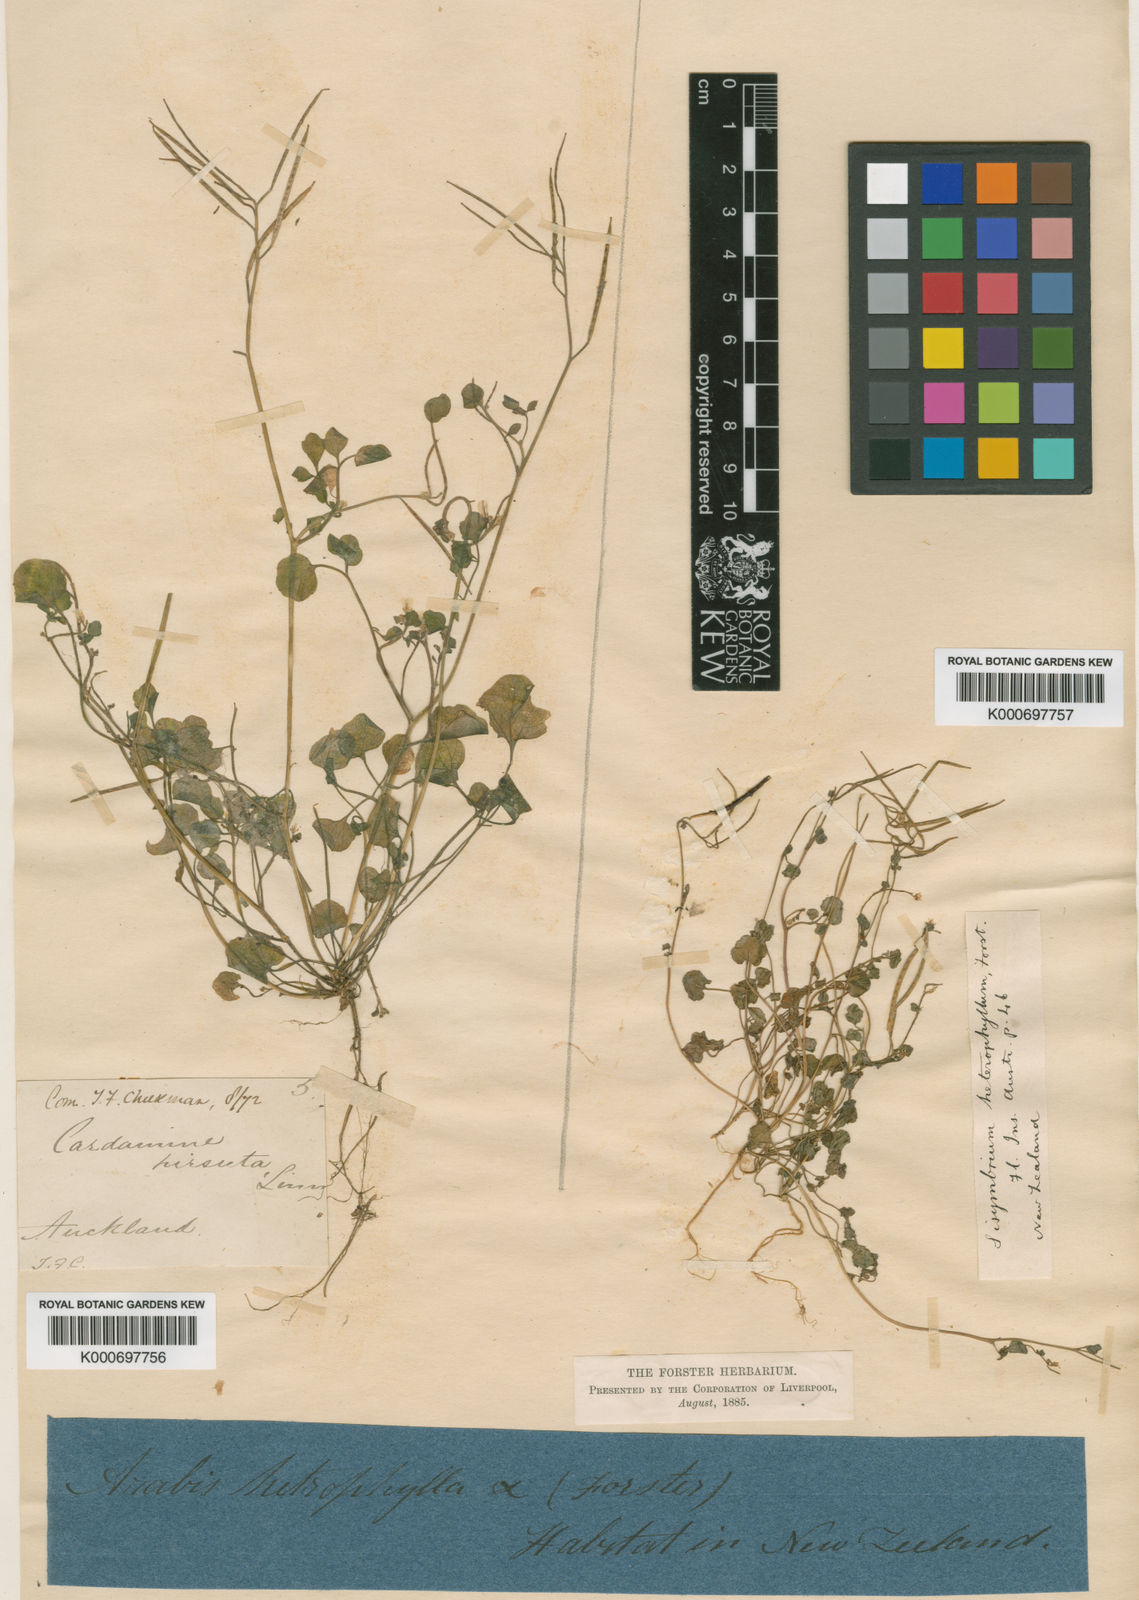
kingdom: Plantae
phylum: Tracheophyta
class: Magnoliopsida
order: Brassicales
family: Brassicaceae
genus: Cardamine
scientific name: Cardamine debilis
